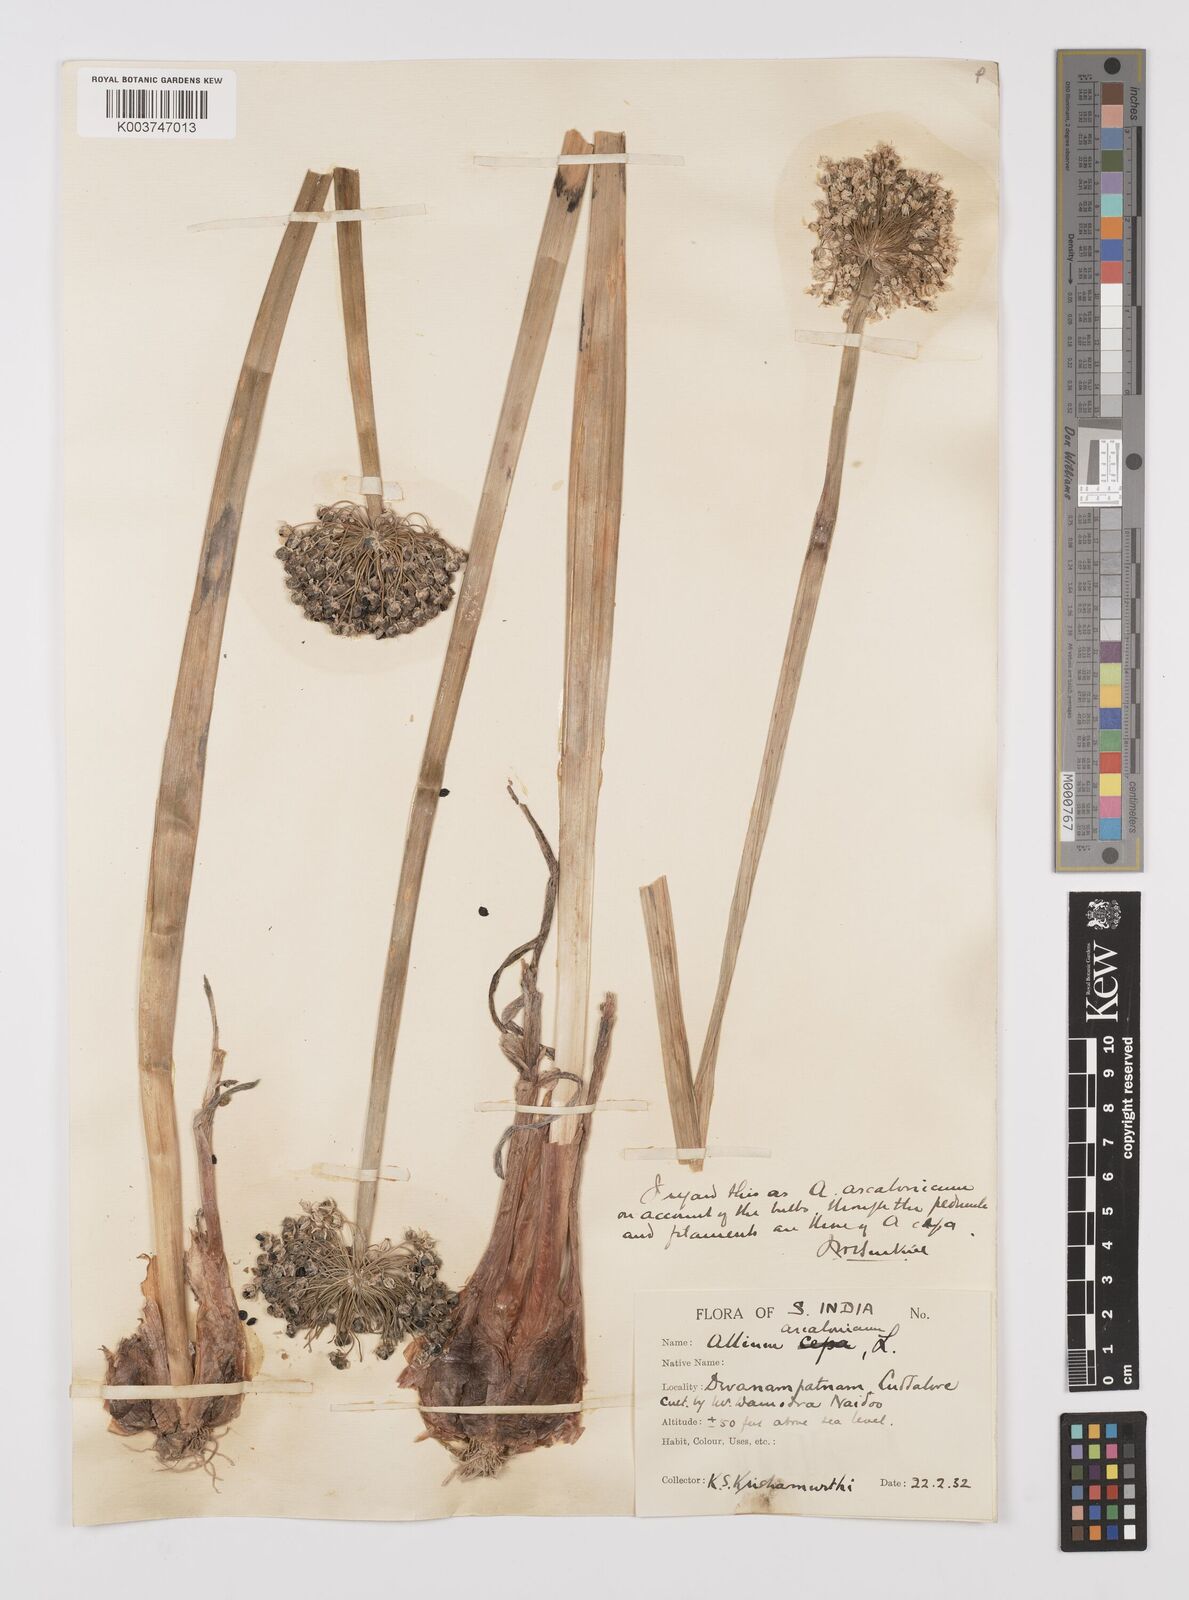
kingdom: Plantae
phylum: Tracheophyta
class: Liliopsida
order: Asparagales
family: Amaryllidaceae
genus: Allium
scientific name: Allium ascalonicum
